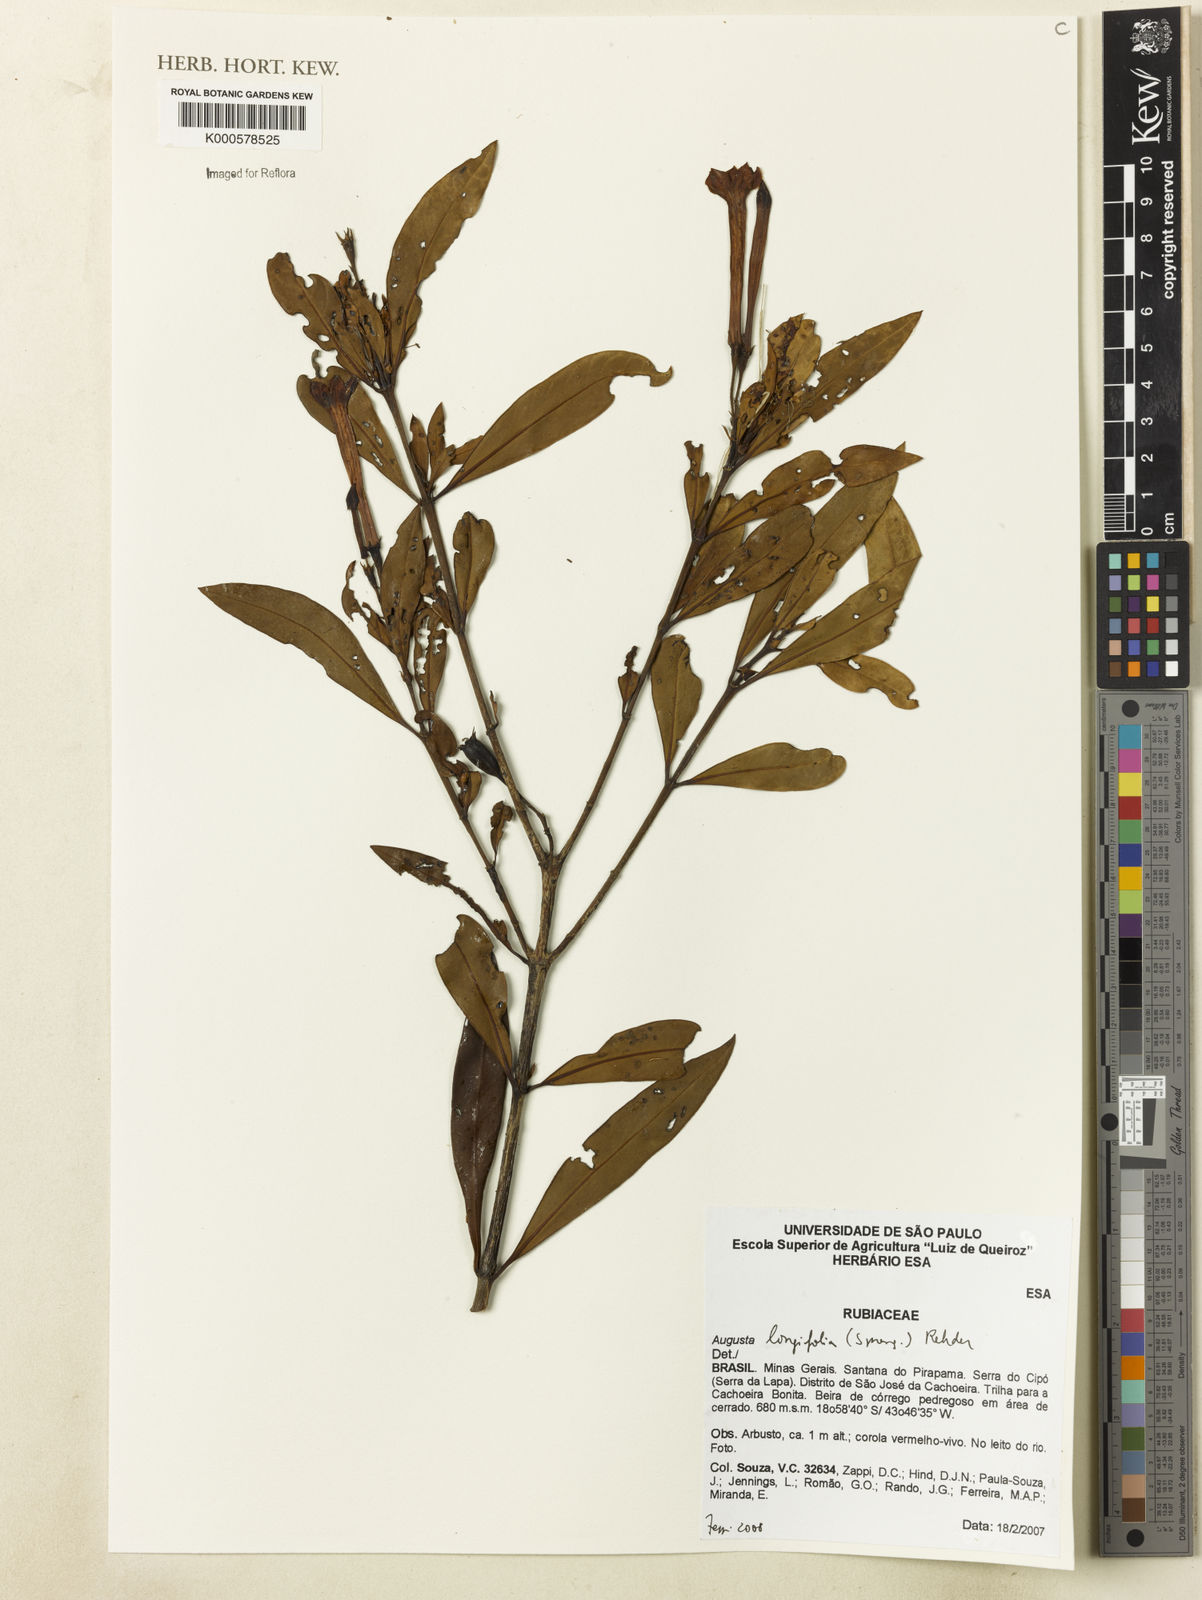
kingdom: Plantae
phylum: Tracheophyta
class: Magnoliopsida
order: Gentianales
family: Rubiaceae
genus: Augusta
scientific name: Augusta longifolia
